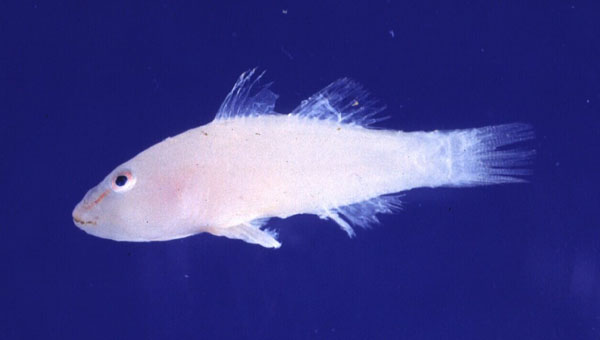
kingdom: Animalia
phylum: Chordata
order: Perciformes
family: Gobiidae
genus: Pleurosicya
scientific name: Pleurosicya boldinghi
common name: Soft-coral goby
